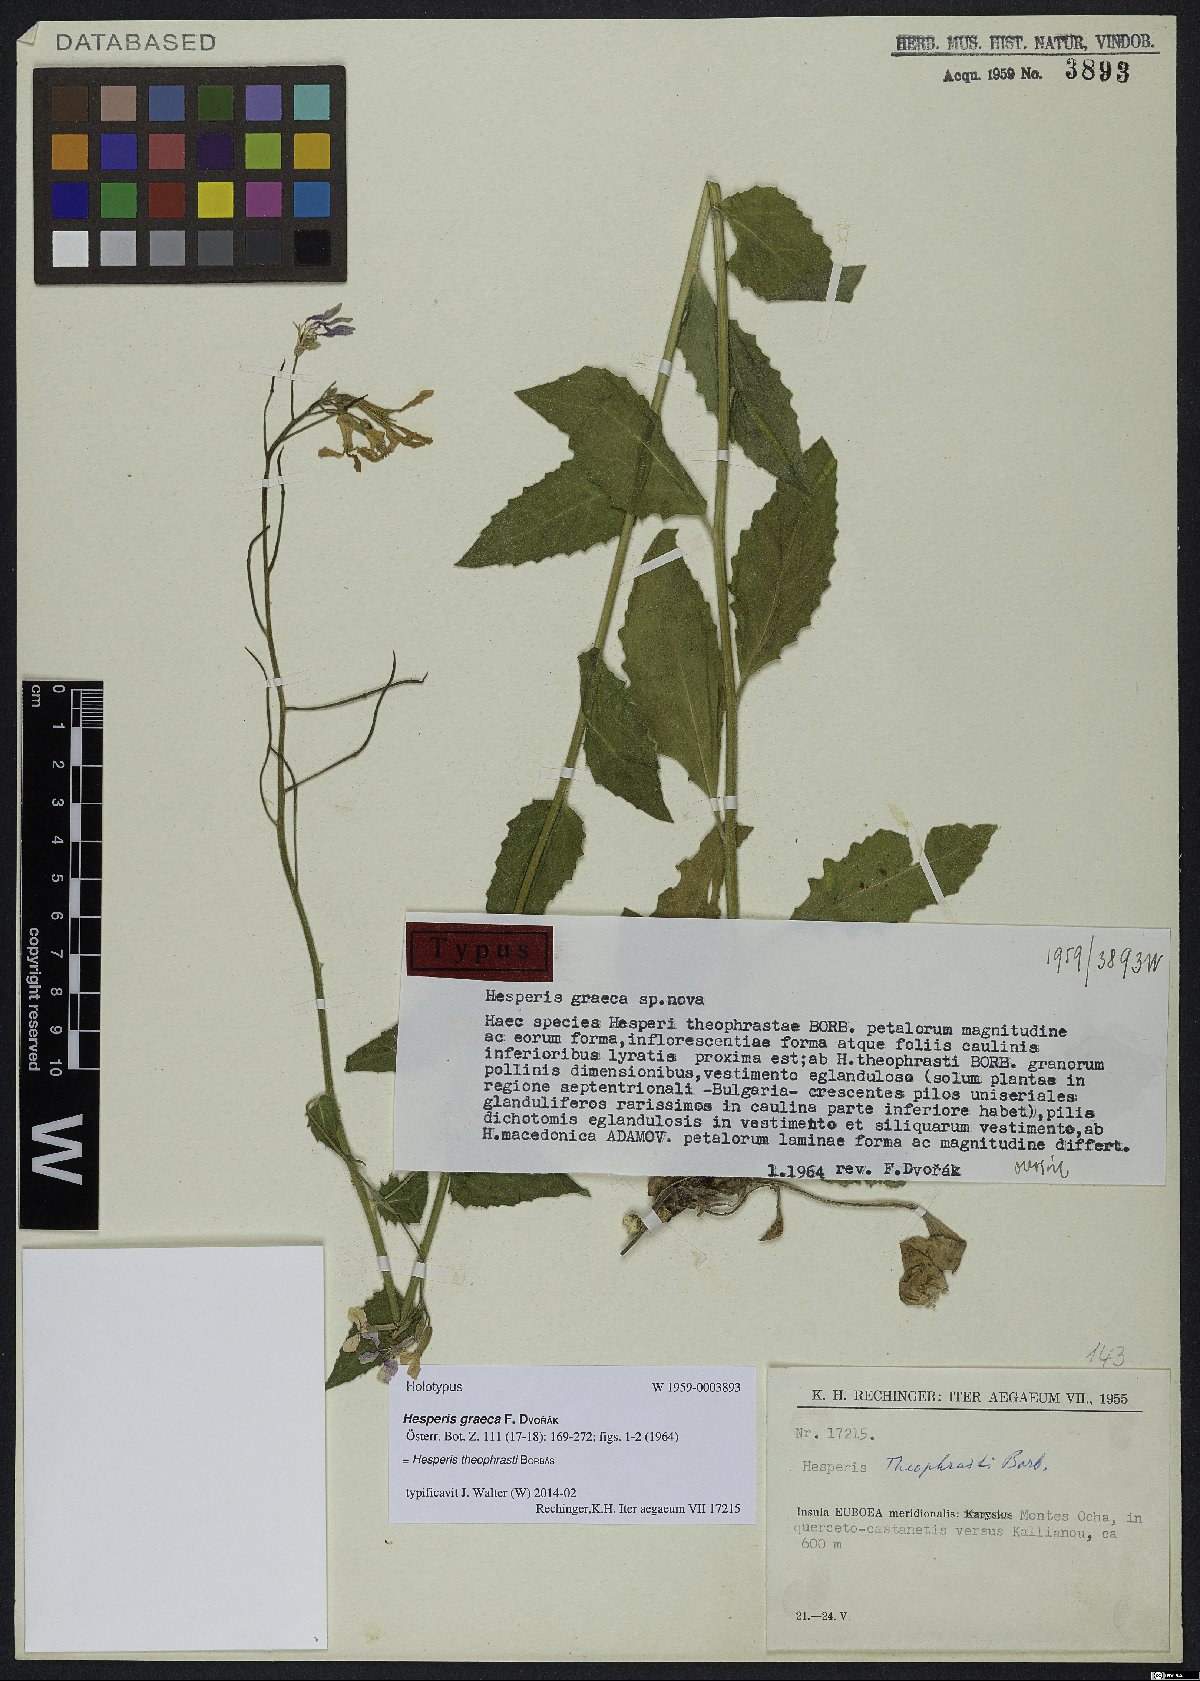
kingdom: Plantae
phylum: Tracheophyta
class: Magnoliopsida
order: Brassicales
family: Brassicaceae
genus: Hesperis
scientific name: Hesperis theophrasti
